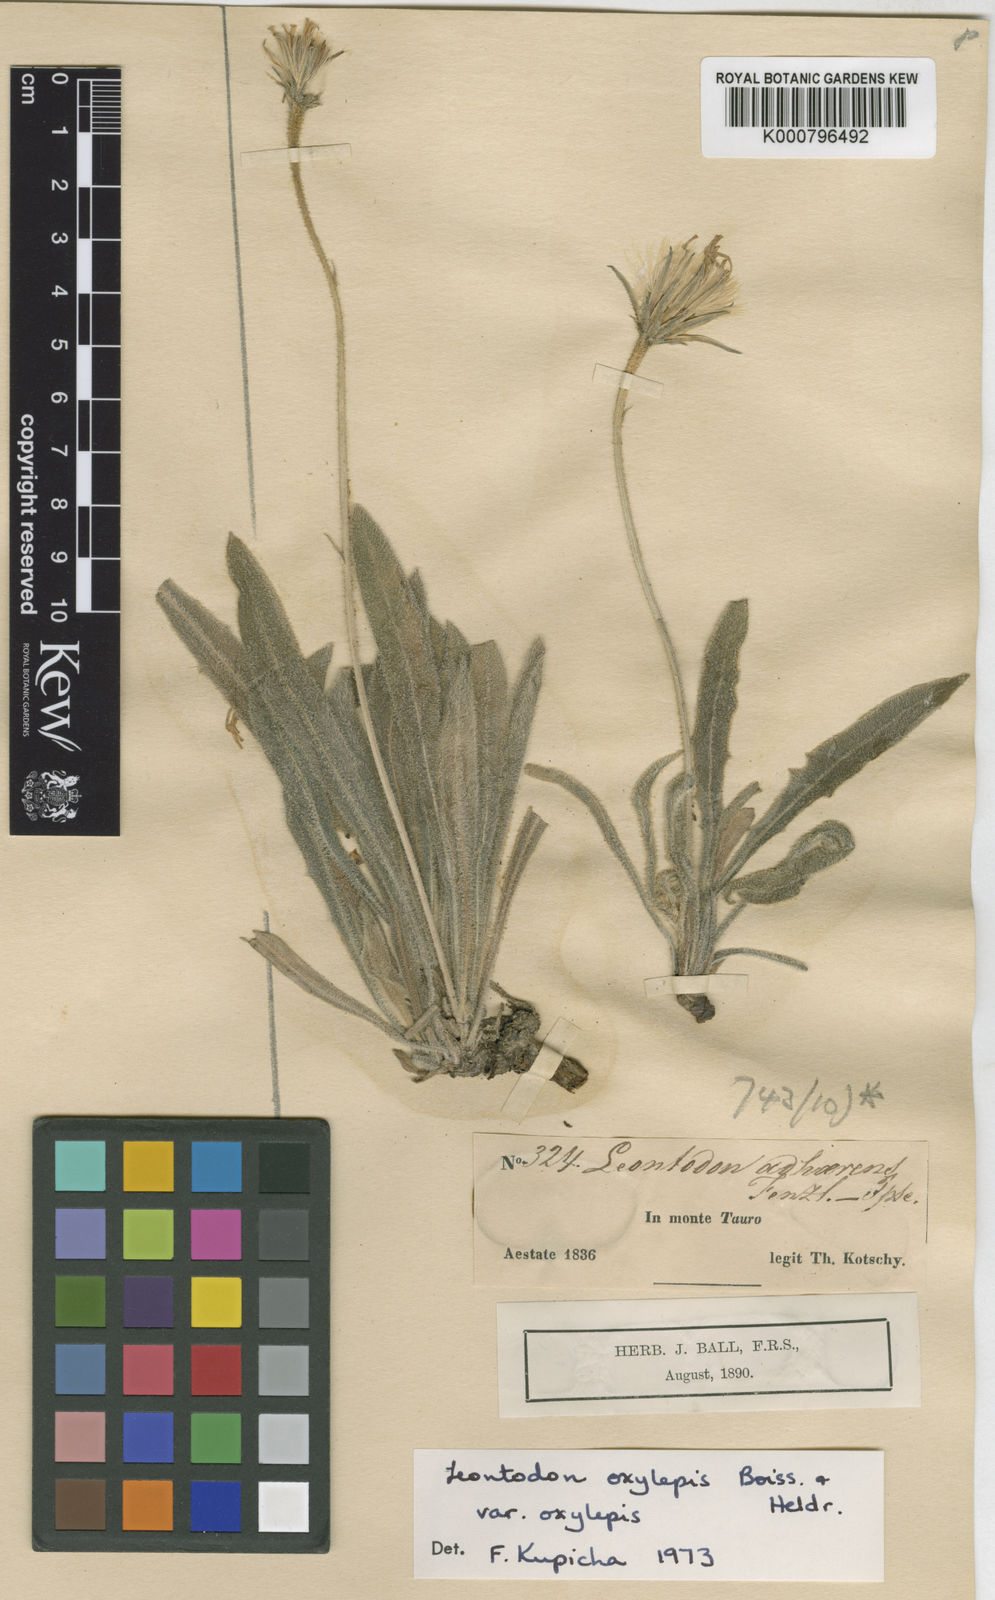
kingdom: Plantae
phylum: Tracheophyta
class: Magnoliopsida
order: Asterales
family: Asteraceae
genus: Leontodon
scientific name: Leontodon oxylepis
